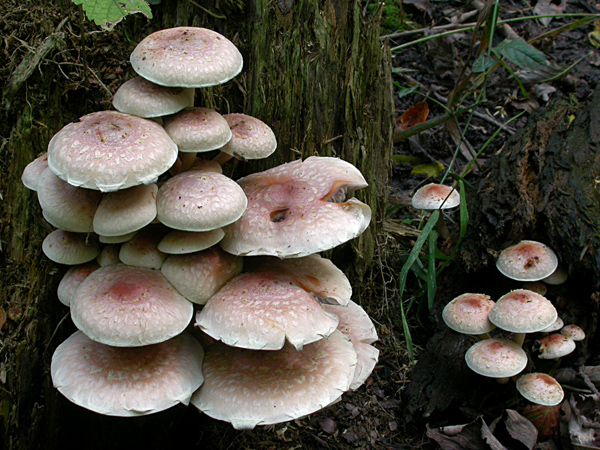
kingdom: Fungi
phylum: Basidiomycota
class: Agaricomycetes
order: Agaricales
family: Strophariaceae
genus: Hypholoma
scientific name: Hypholoma lateritium
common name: teglrød svovlhat
